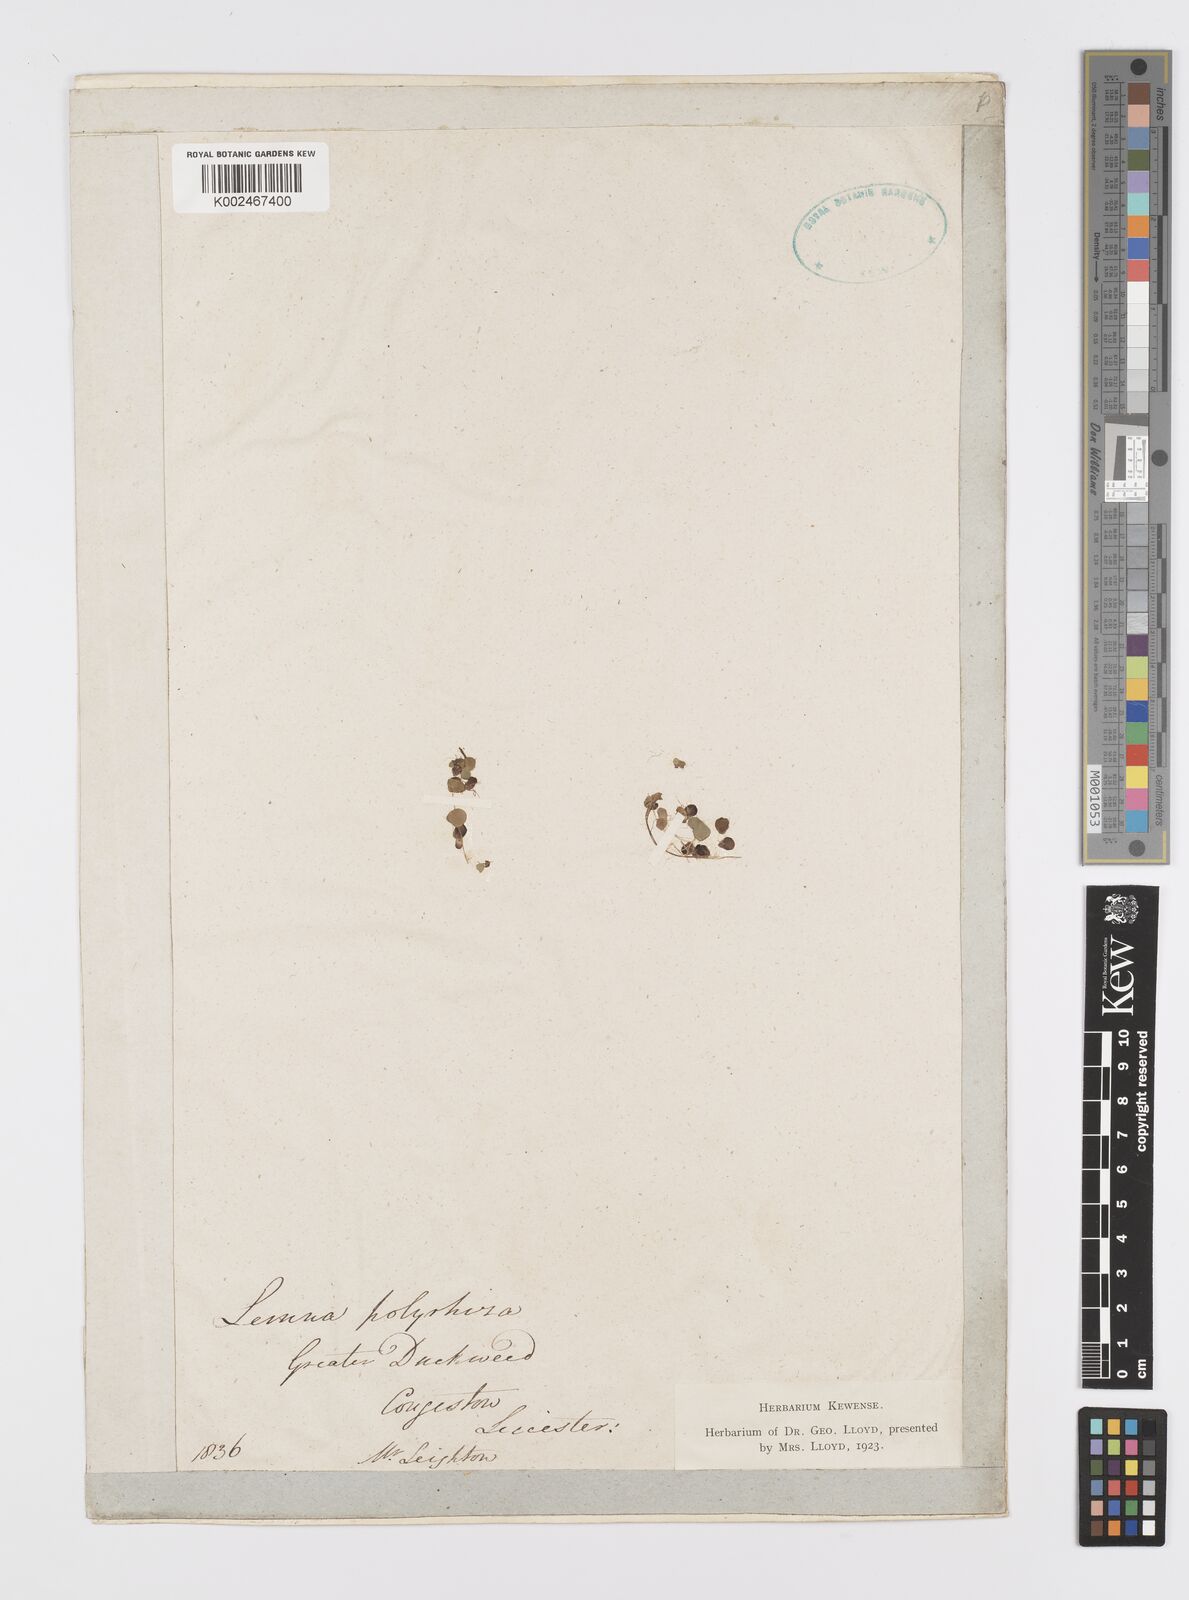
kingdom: Plantae
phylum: Tracheophyta
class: Liliopsida
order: Alismatales
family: Araceae
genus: Spirodela
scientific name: Spirodela polyrhiza
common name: Great duckweed
